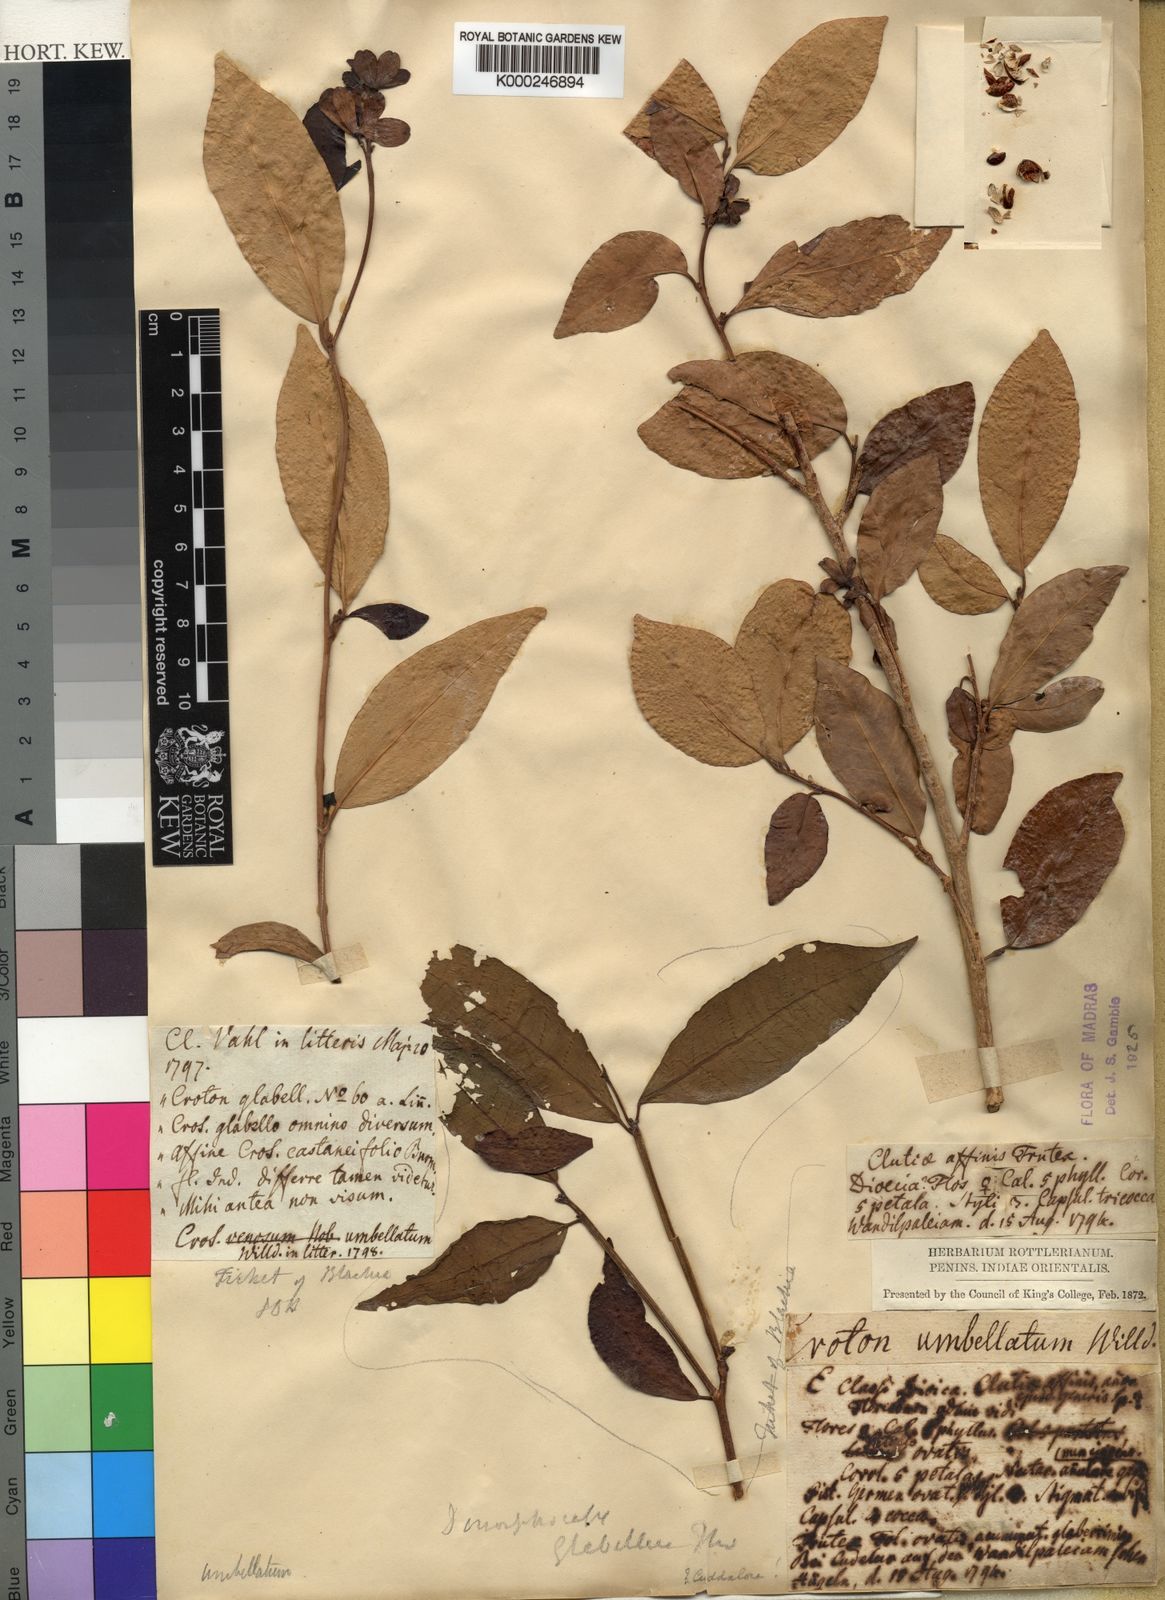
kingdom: Plantae
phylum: Tracheophyta
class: Magnoliopsida
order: Malpighiales
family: Euphorbiaceae
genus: Tritaxis
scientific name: Tritaxis glabella
